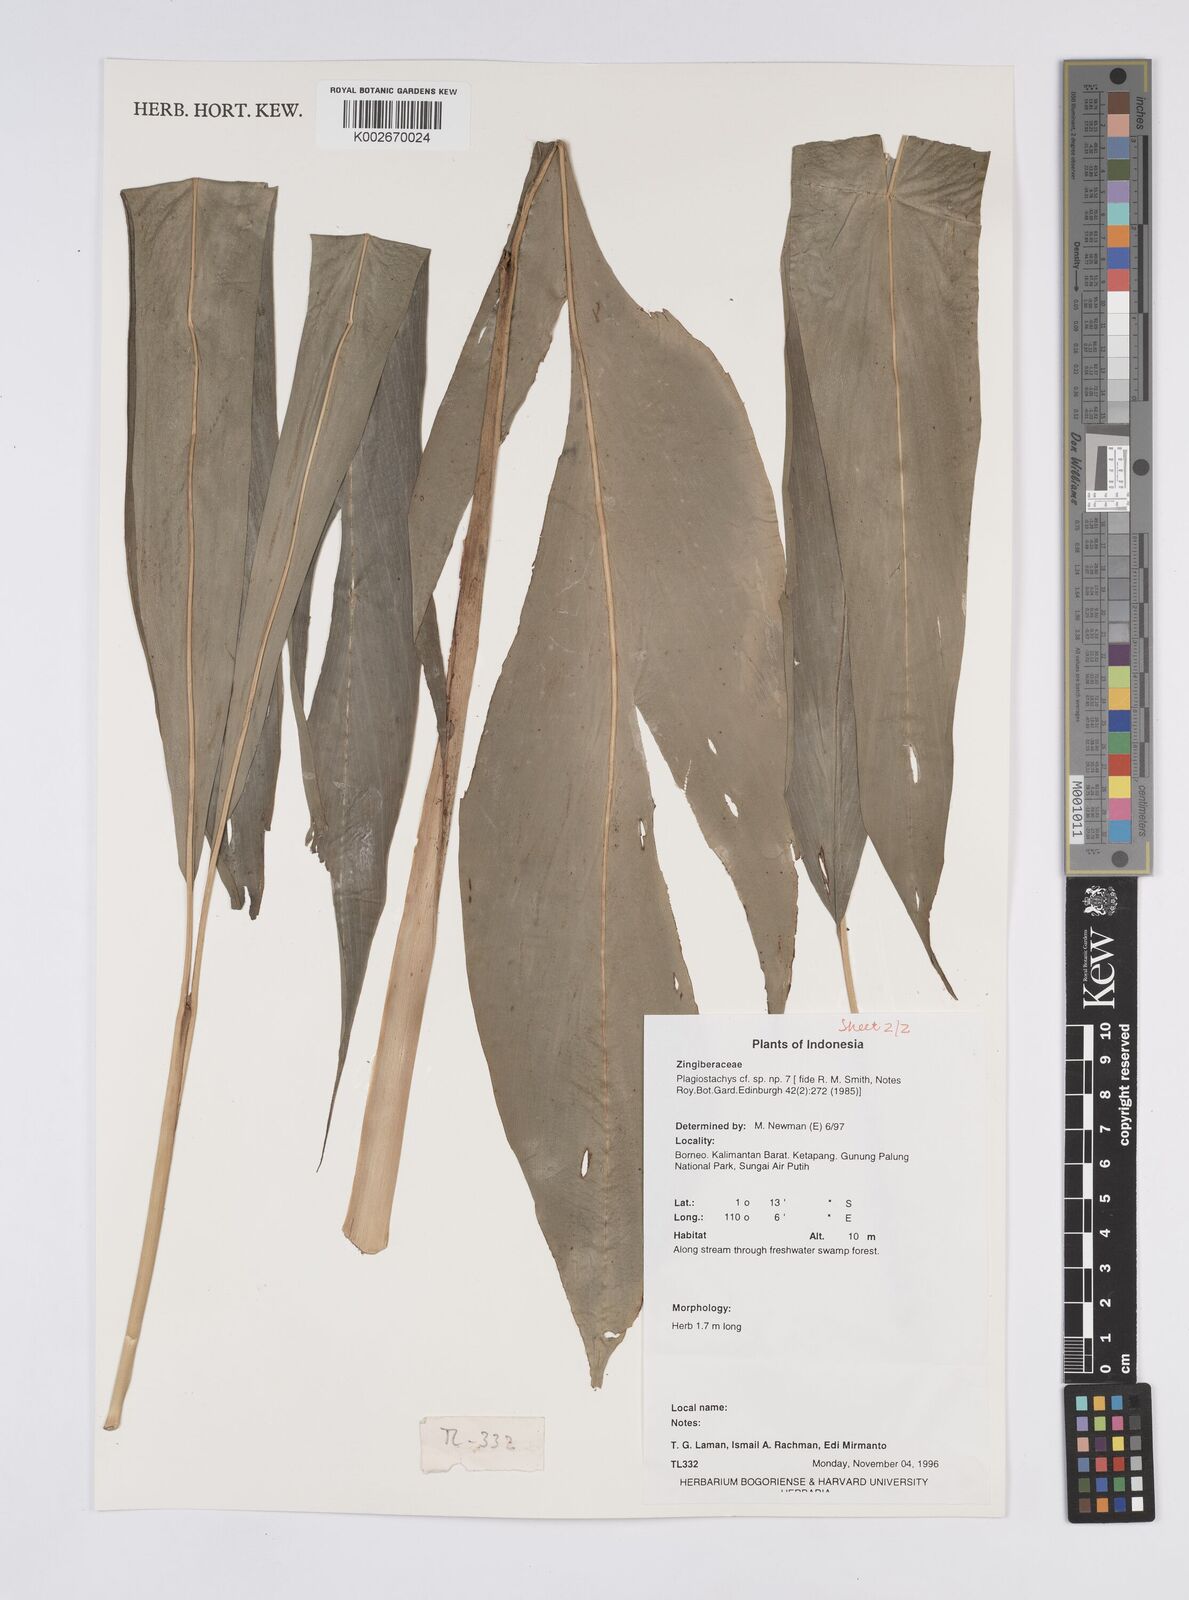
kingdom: Plantae
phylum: Tracheophyta
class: Liliopsida
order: Zingiberales
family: Zingiberaceae
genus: Plagiostachys
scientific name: Plagiostachys
